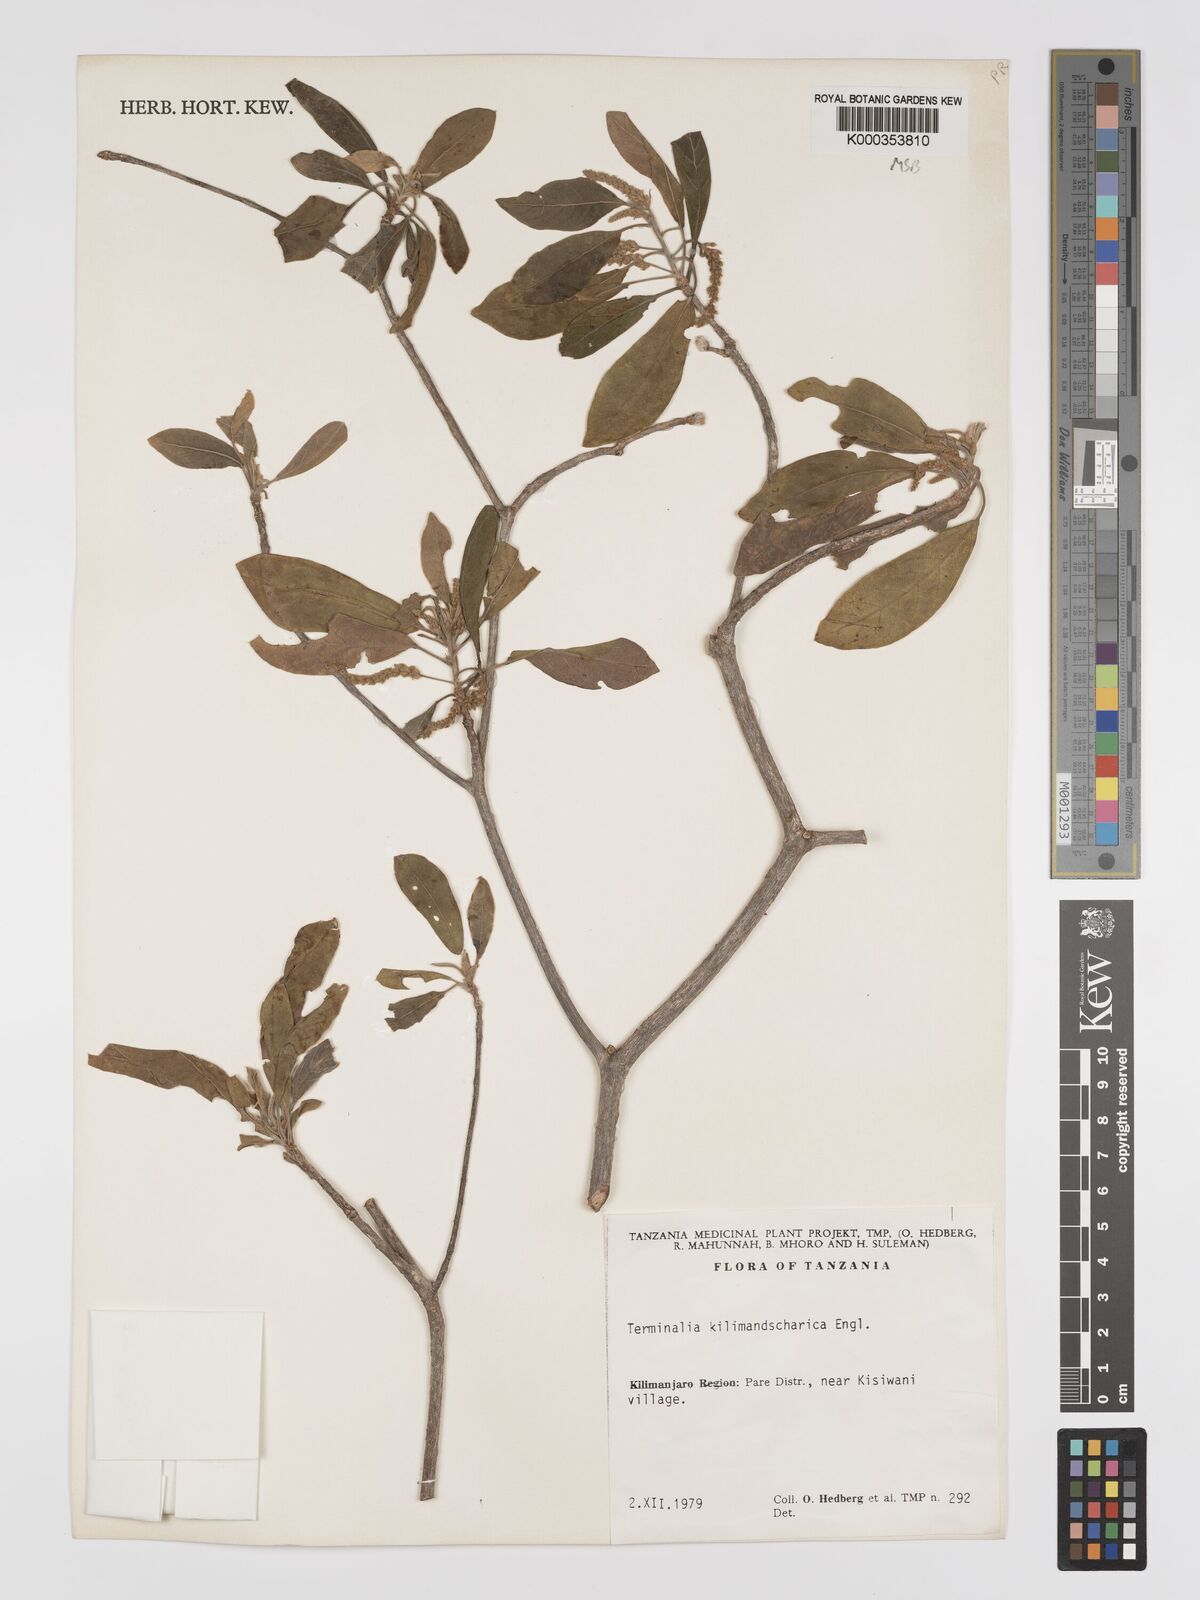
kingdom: Plantae
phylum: Tracheophyta
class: Magnoliopsida
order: Myrtales
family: Combretaceae
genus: Terminalia
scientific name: Terminalia kilimandscharica
